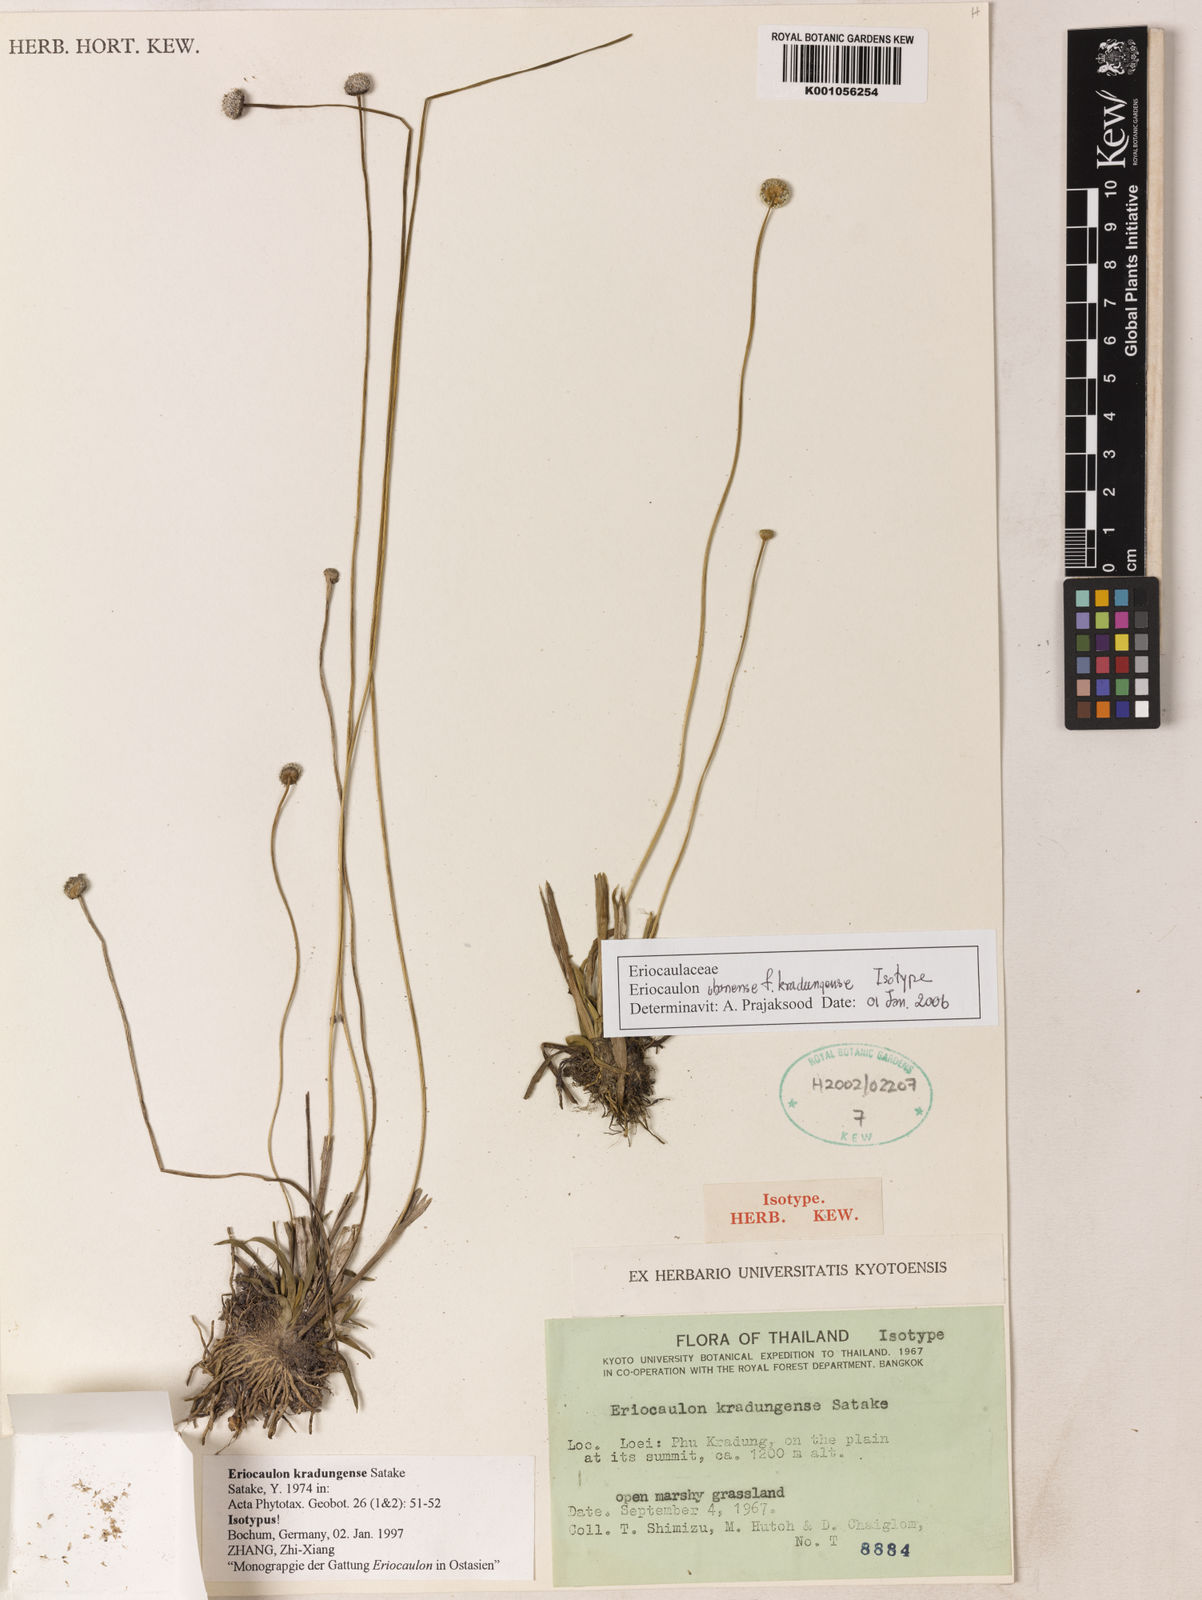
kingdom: Plantae
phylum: Tracheophyta
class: Liliopsida
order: Poales
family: Eriocaulaceae
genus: Eriocaulon
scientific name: Eriocaulon ubonense
